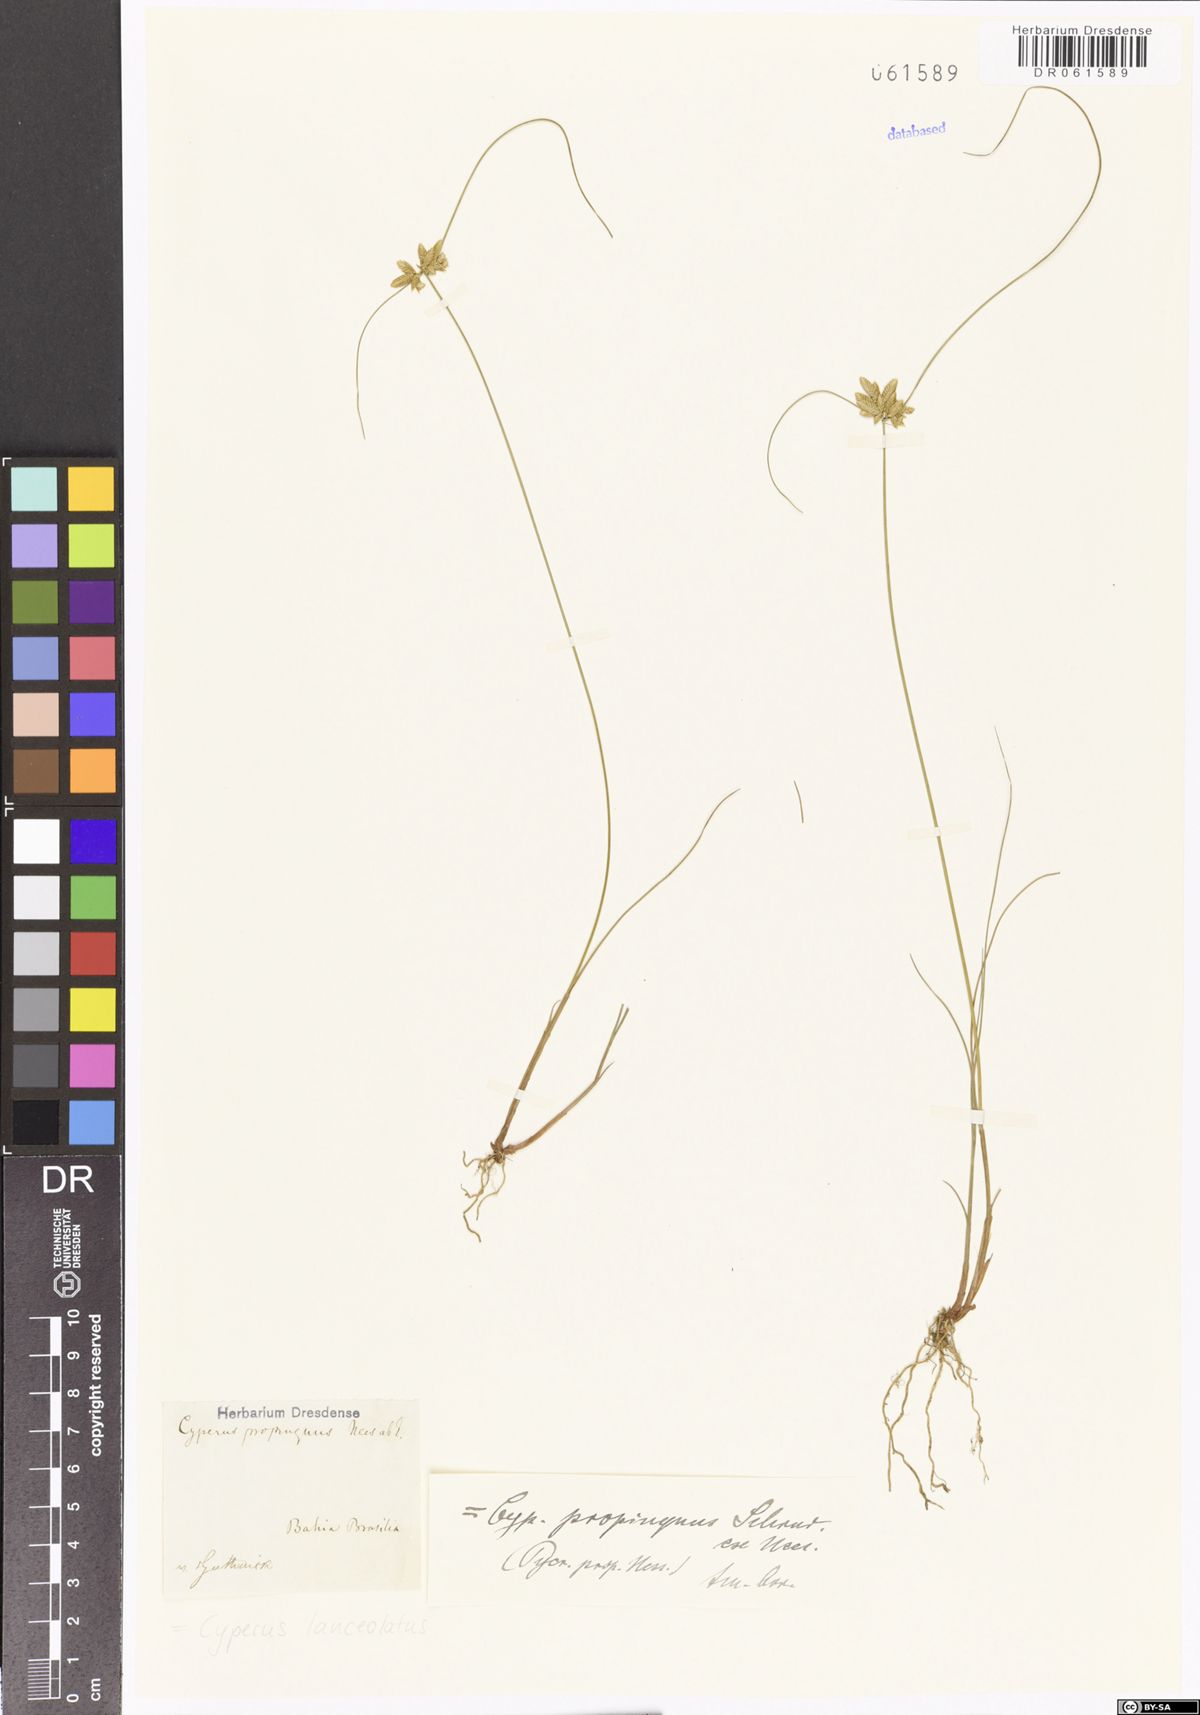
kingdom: Plantae
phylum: Tracheophyta
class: Liliopsida
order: Poales
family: Cyperaceae
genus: Cyperus
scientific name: Cyperus lanceolatus
